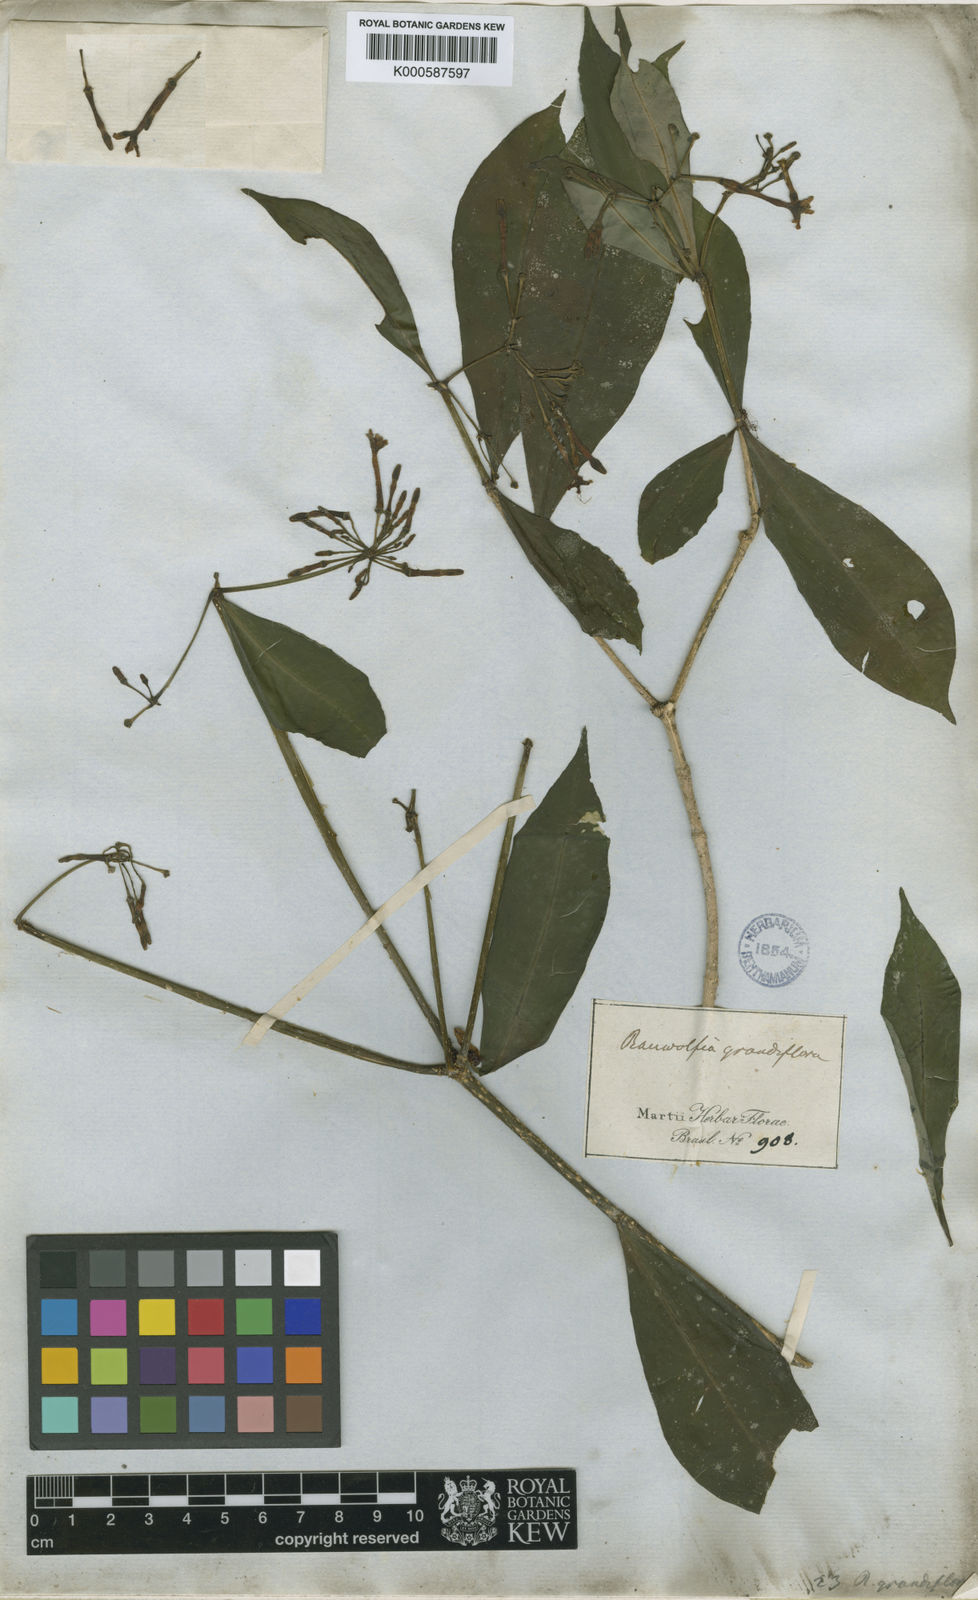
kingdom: Plantae
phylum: Tracheophyta
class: Magnoliopsida
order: Gentianales
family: Apocynaceae
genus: Rauvolfia
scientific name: Rauvolfia grandiflora
